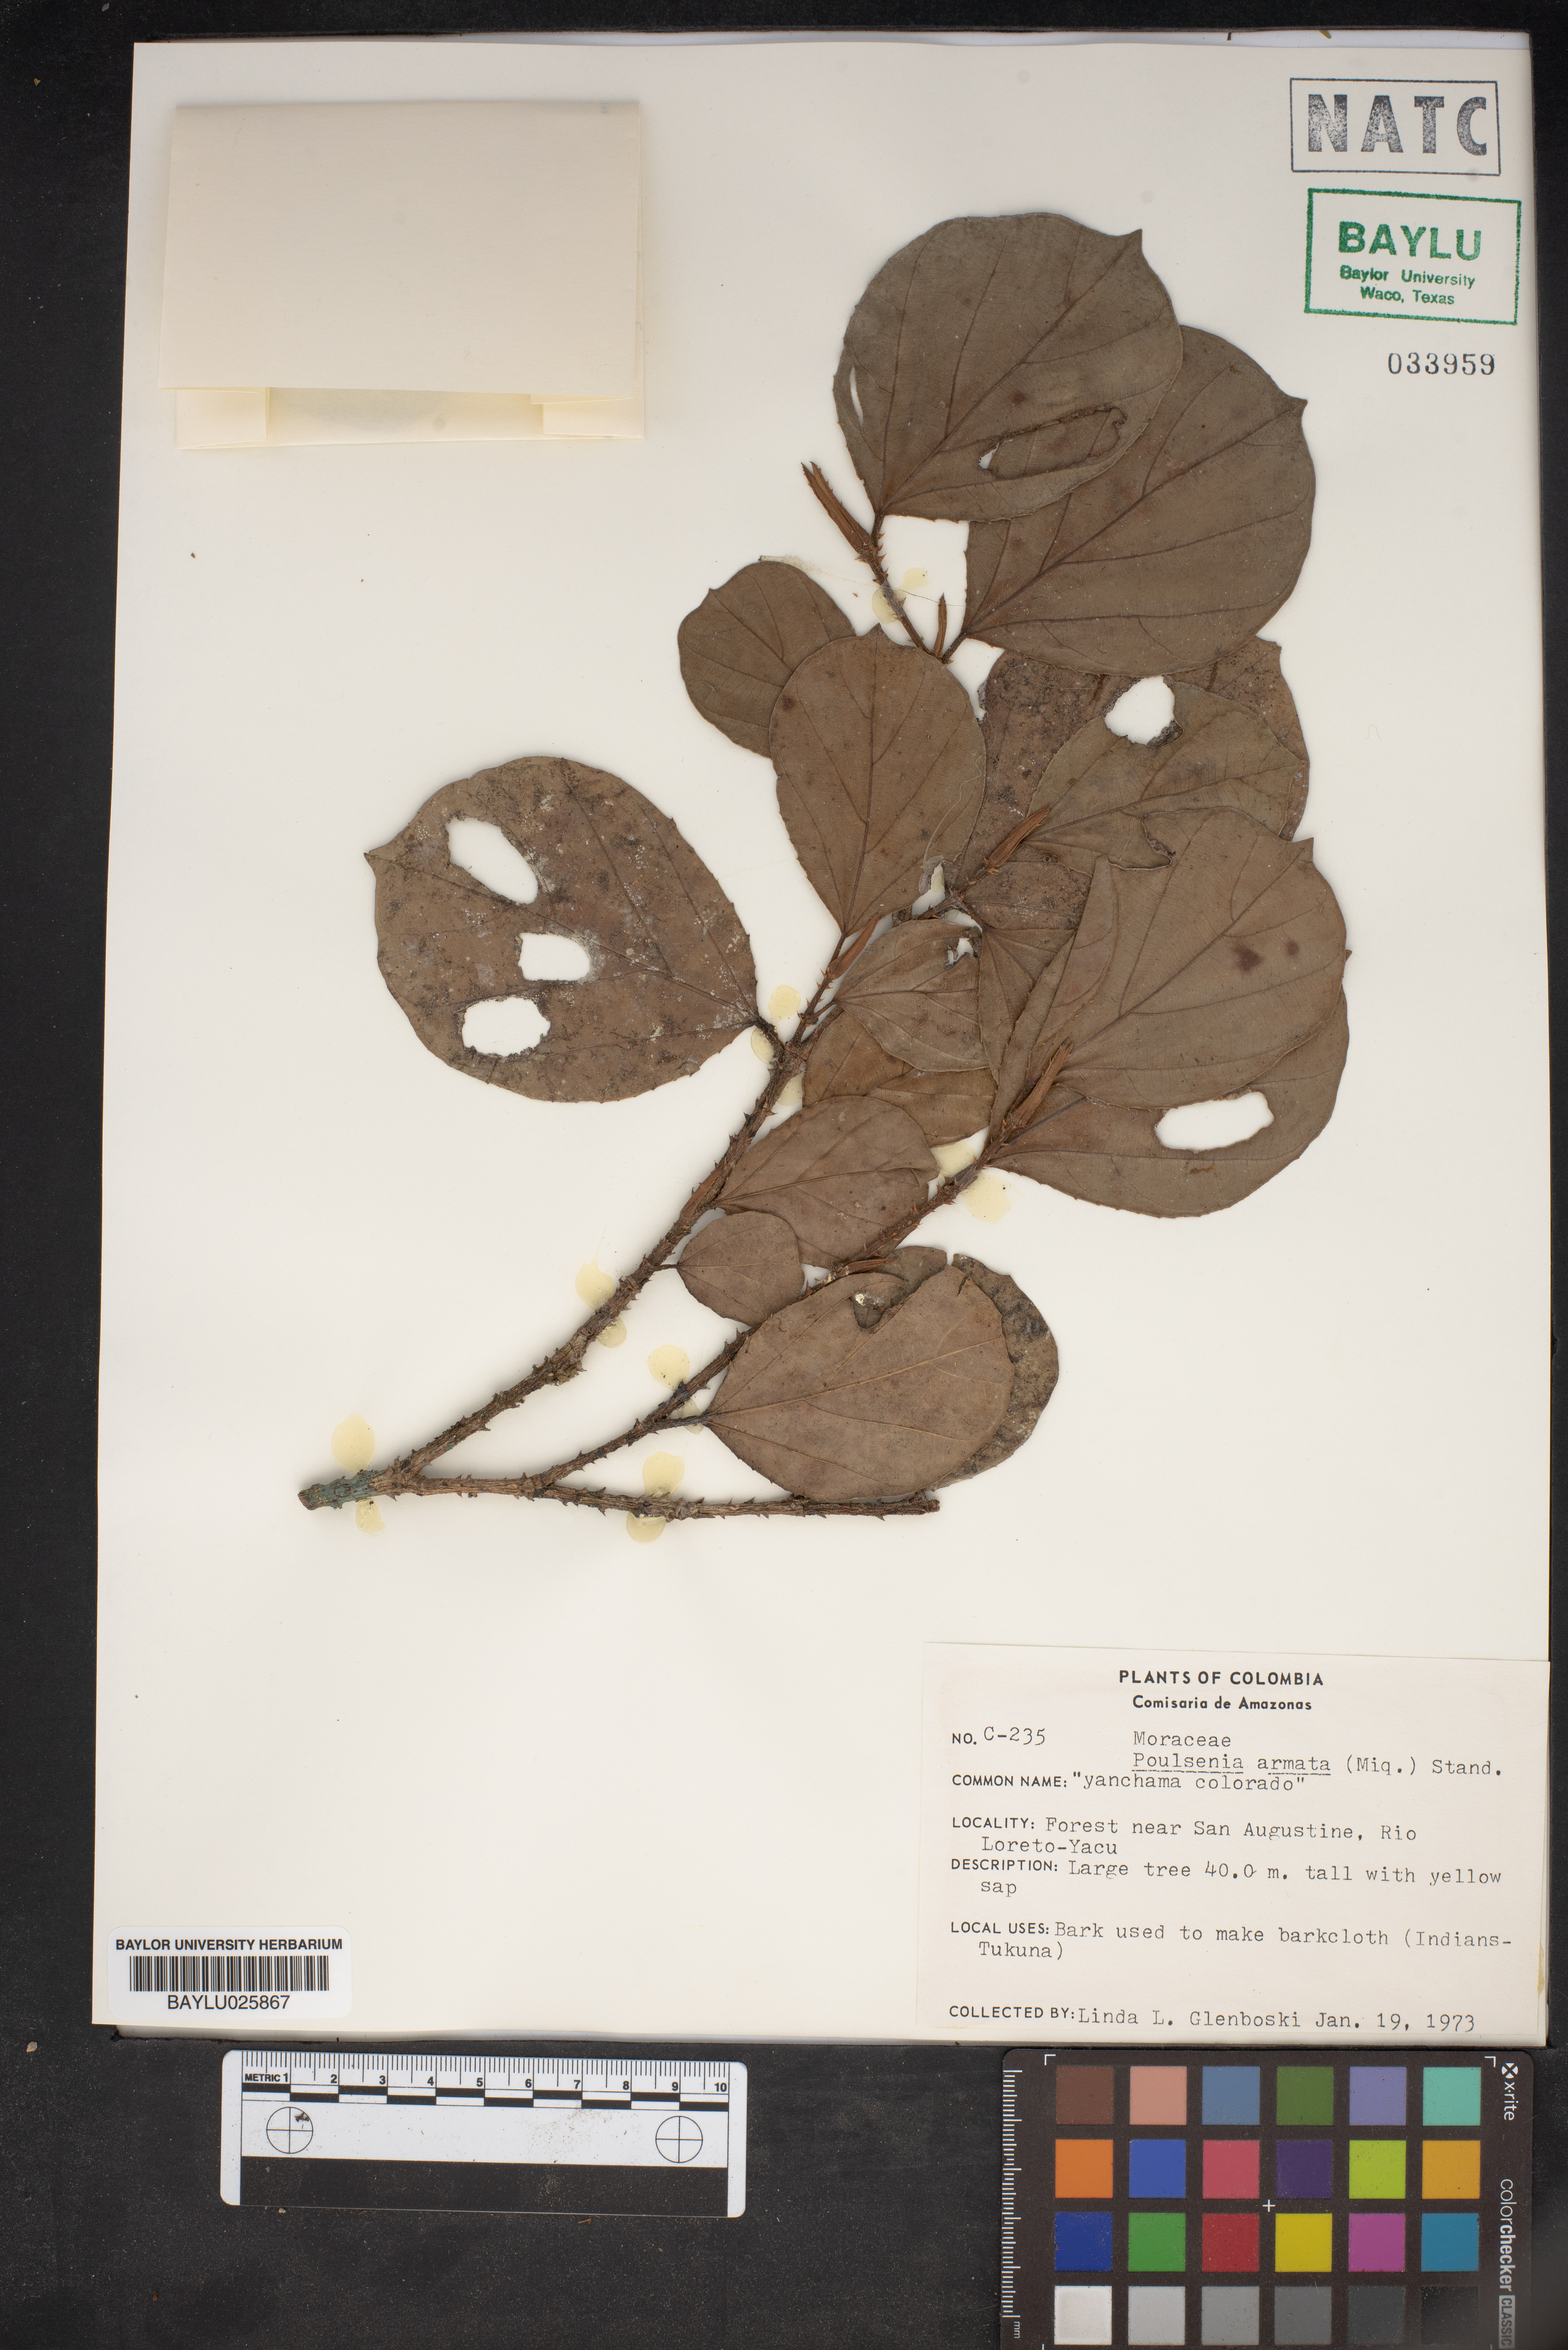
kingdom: Plantae
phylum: Tracheophyta
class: Magnoliopsida
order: Rosales
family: Moraceae
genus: Poulsenia
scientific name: Poulsenia armata
